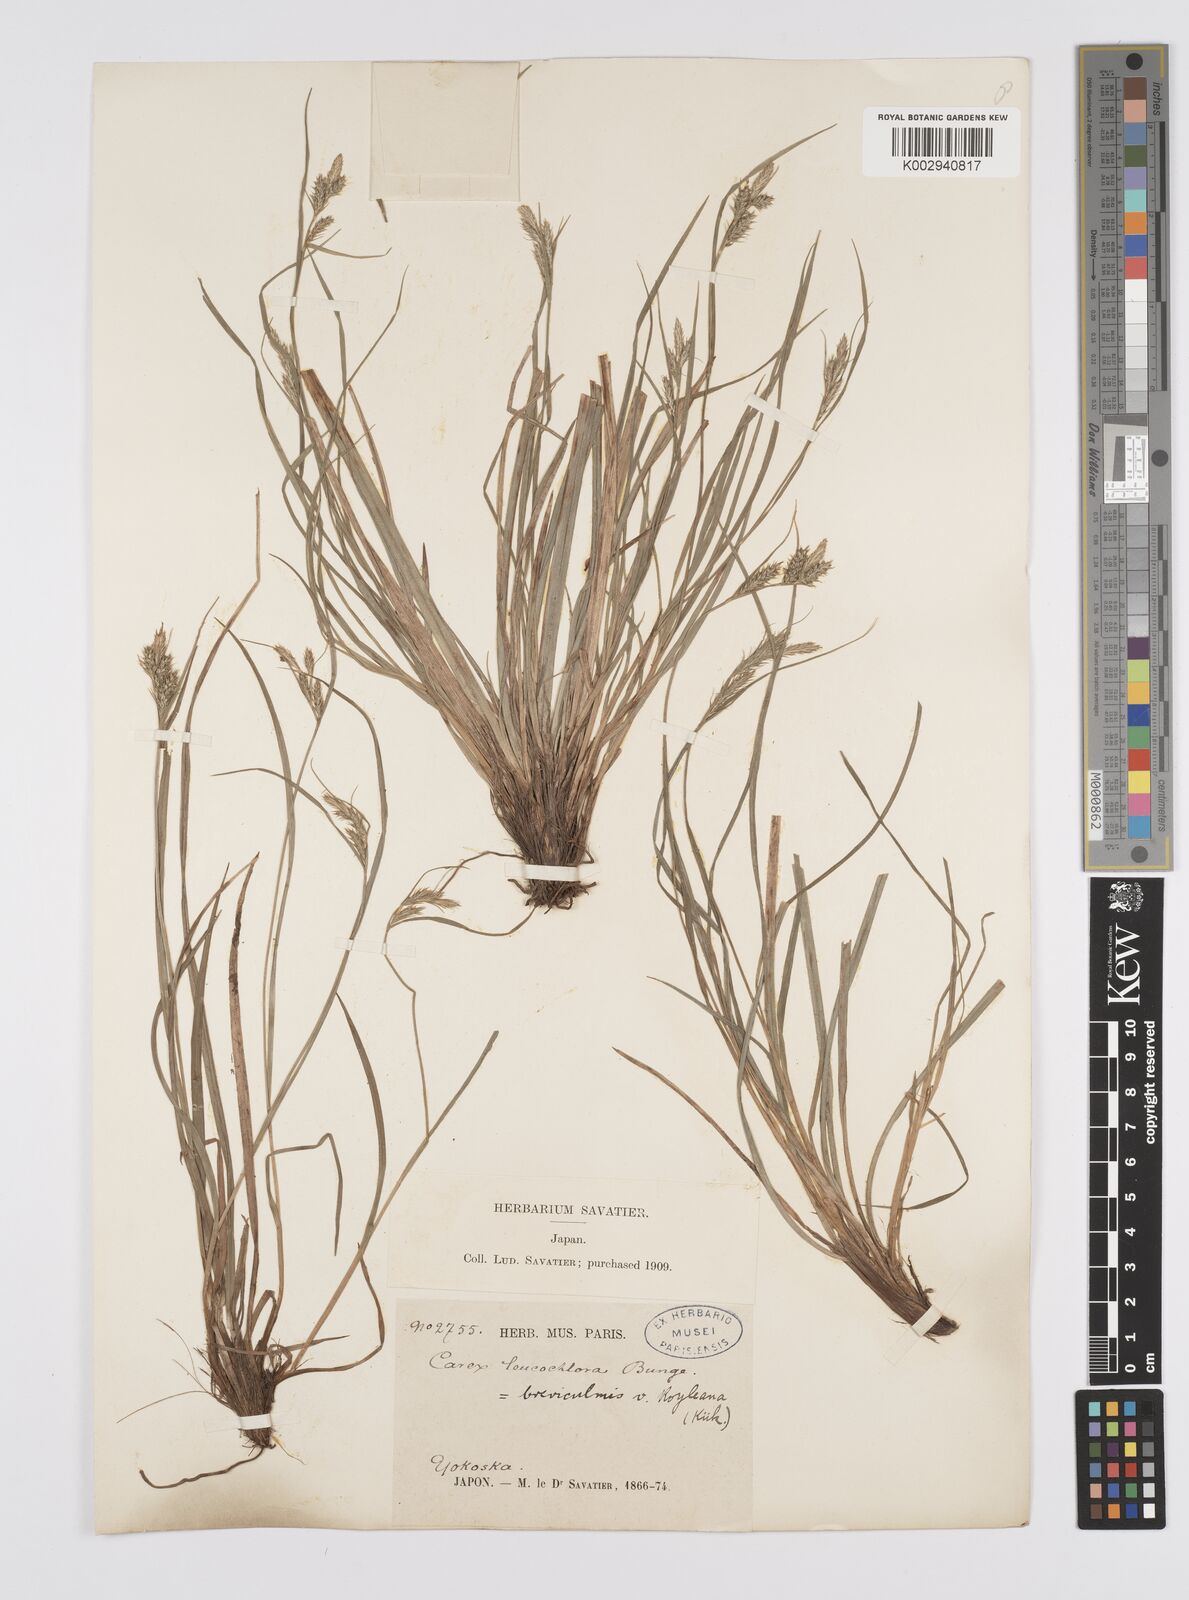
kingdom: Plantae
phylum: Tracheophyta
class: Liliopsida
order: Poales
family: Cyperaceae
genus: Carex
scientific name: Carex breviculmis
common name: Asian shortstem sedge
